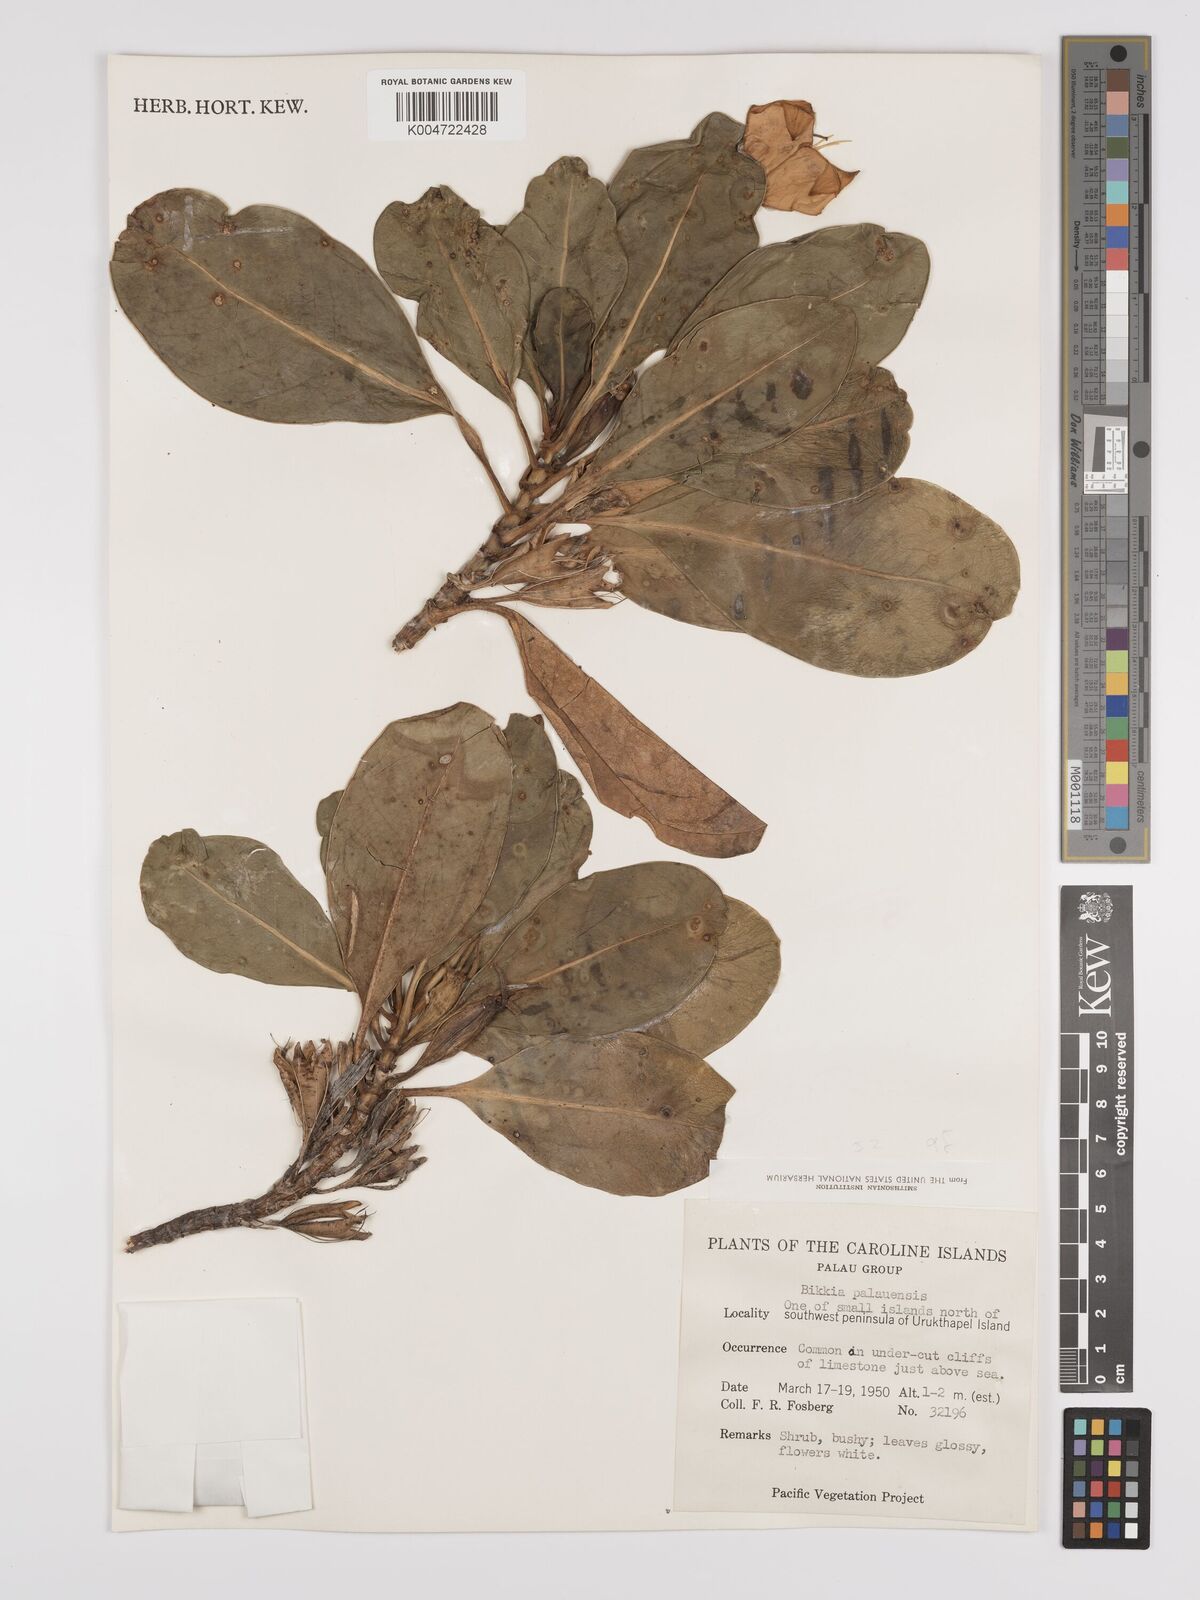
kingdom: Plantae
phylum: Tracheophyta
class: Magnoliopsida
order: Gentianales
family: Rubiaceae
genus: Bikkia
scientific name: Bikkia tetrandra
